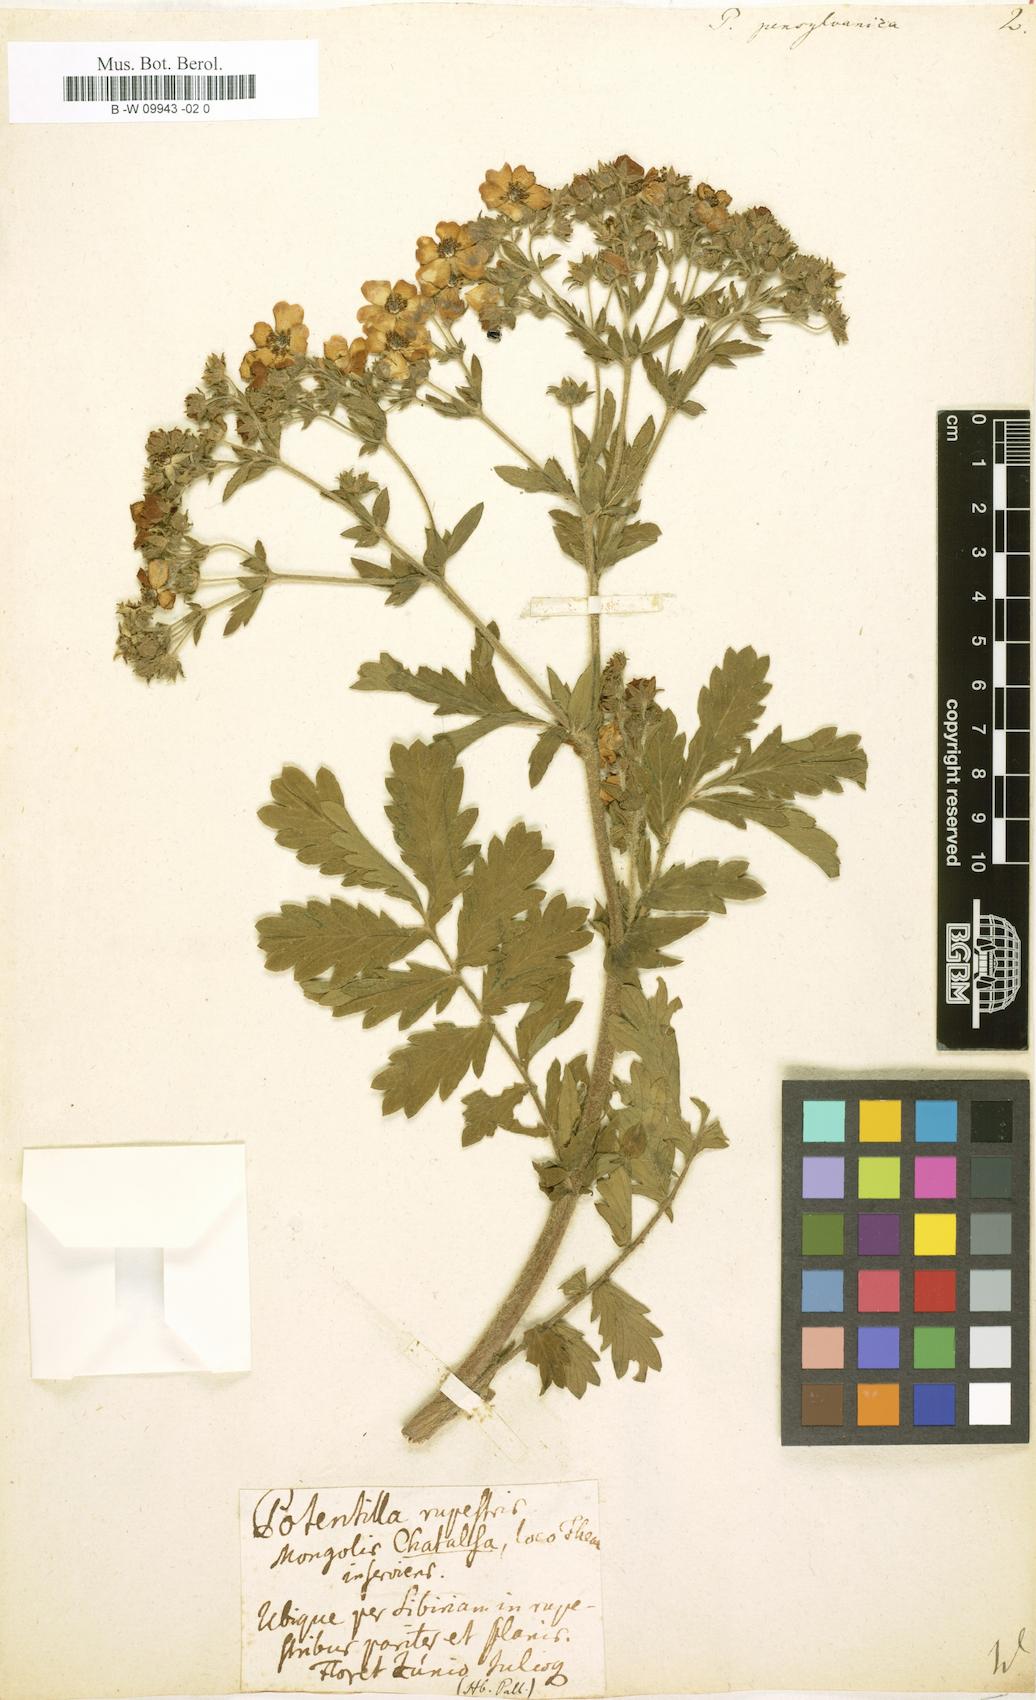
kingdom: Plantae
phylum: Tracheophyta
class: Magnoliopsida
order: Rosales
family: Rosaceae
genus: Potentilla
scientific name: Potentilla pensylvanica
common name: Pennsylvania cinquefoil
